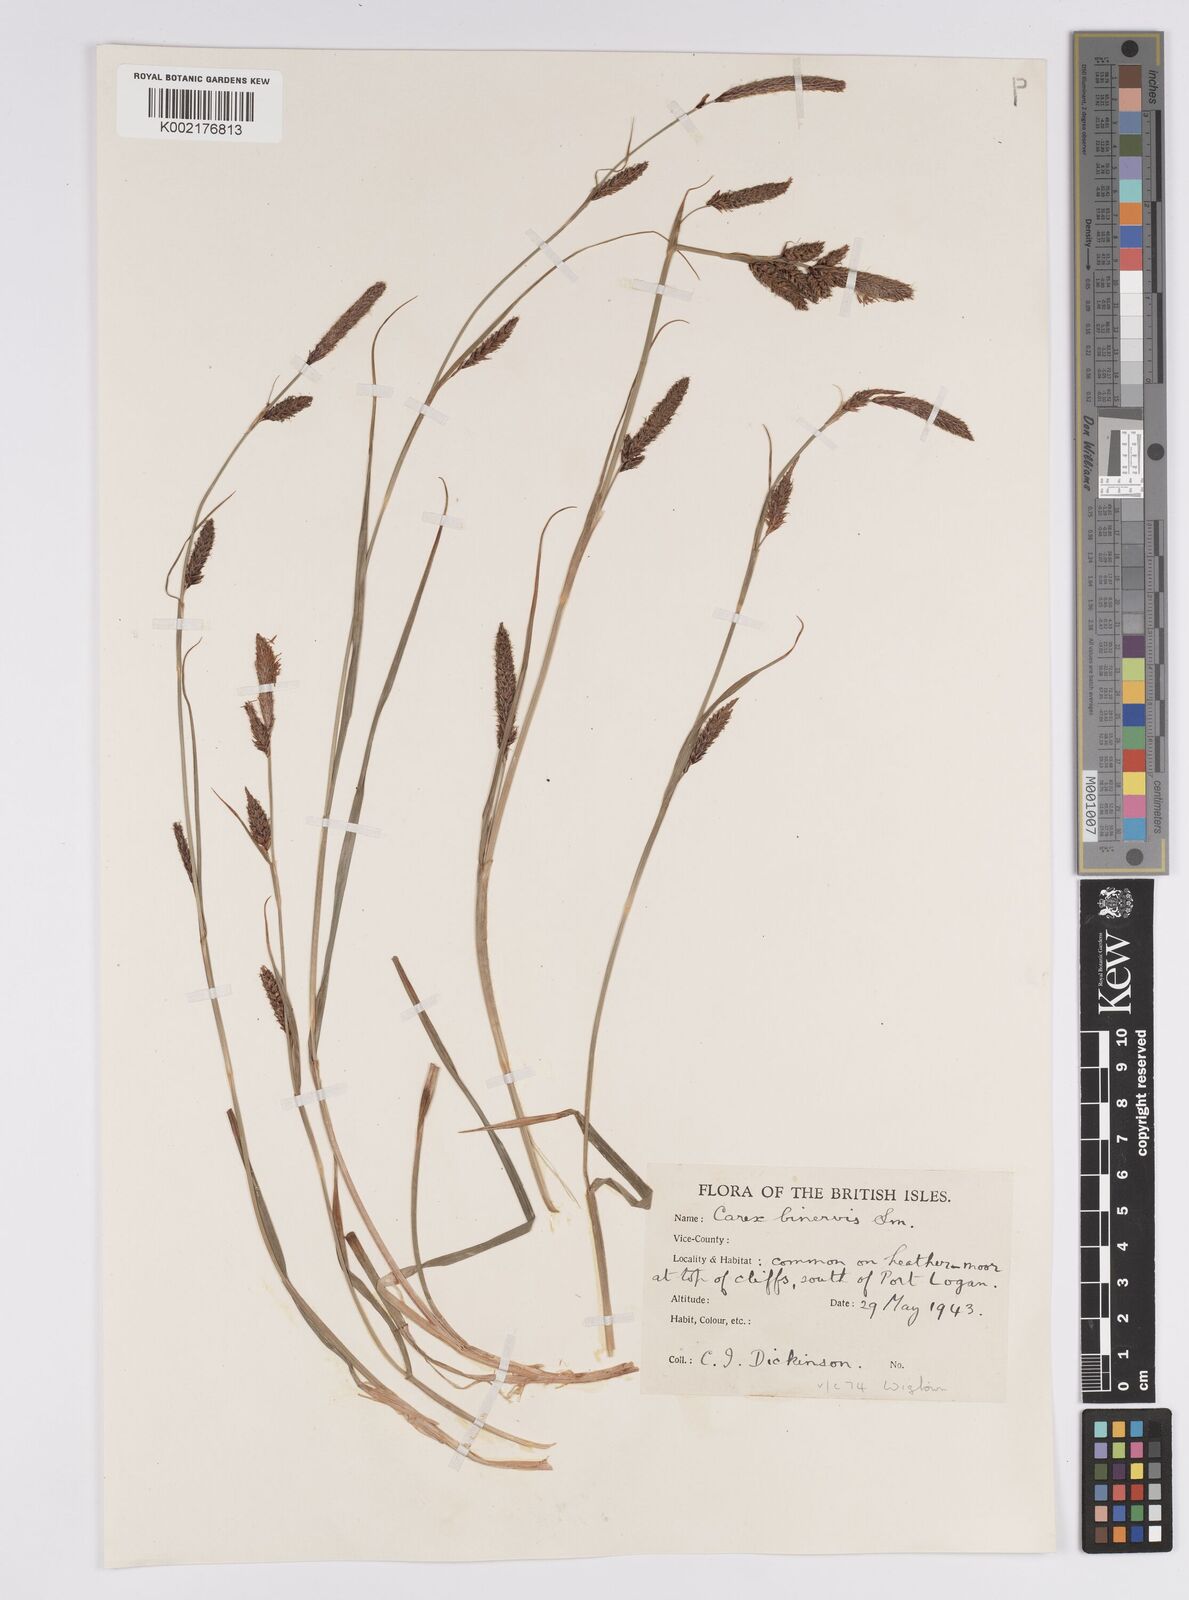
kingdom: Plantae
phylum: Tracheophyta
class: Liliopsida
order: Poales
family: Cyperaceae
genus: Carex
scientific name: Carex binervis
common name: Green-ribbed sedge
